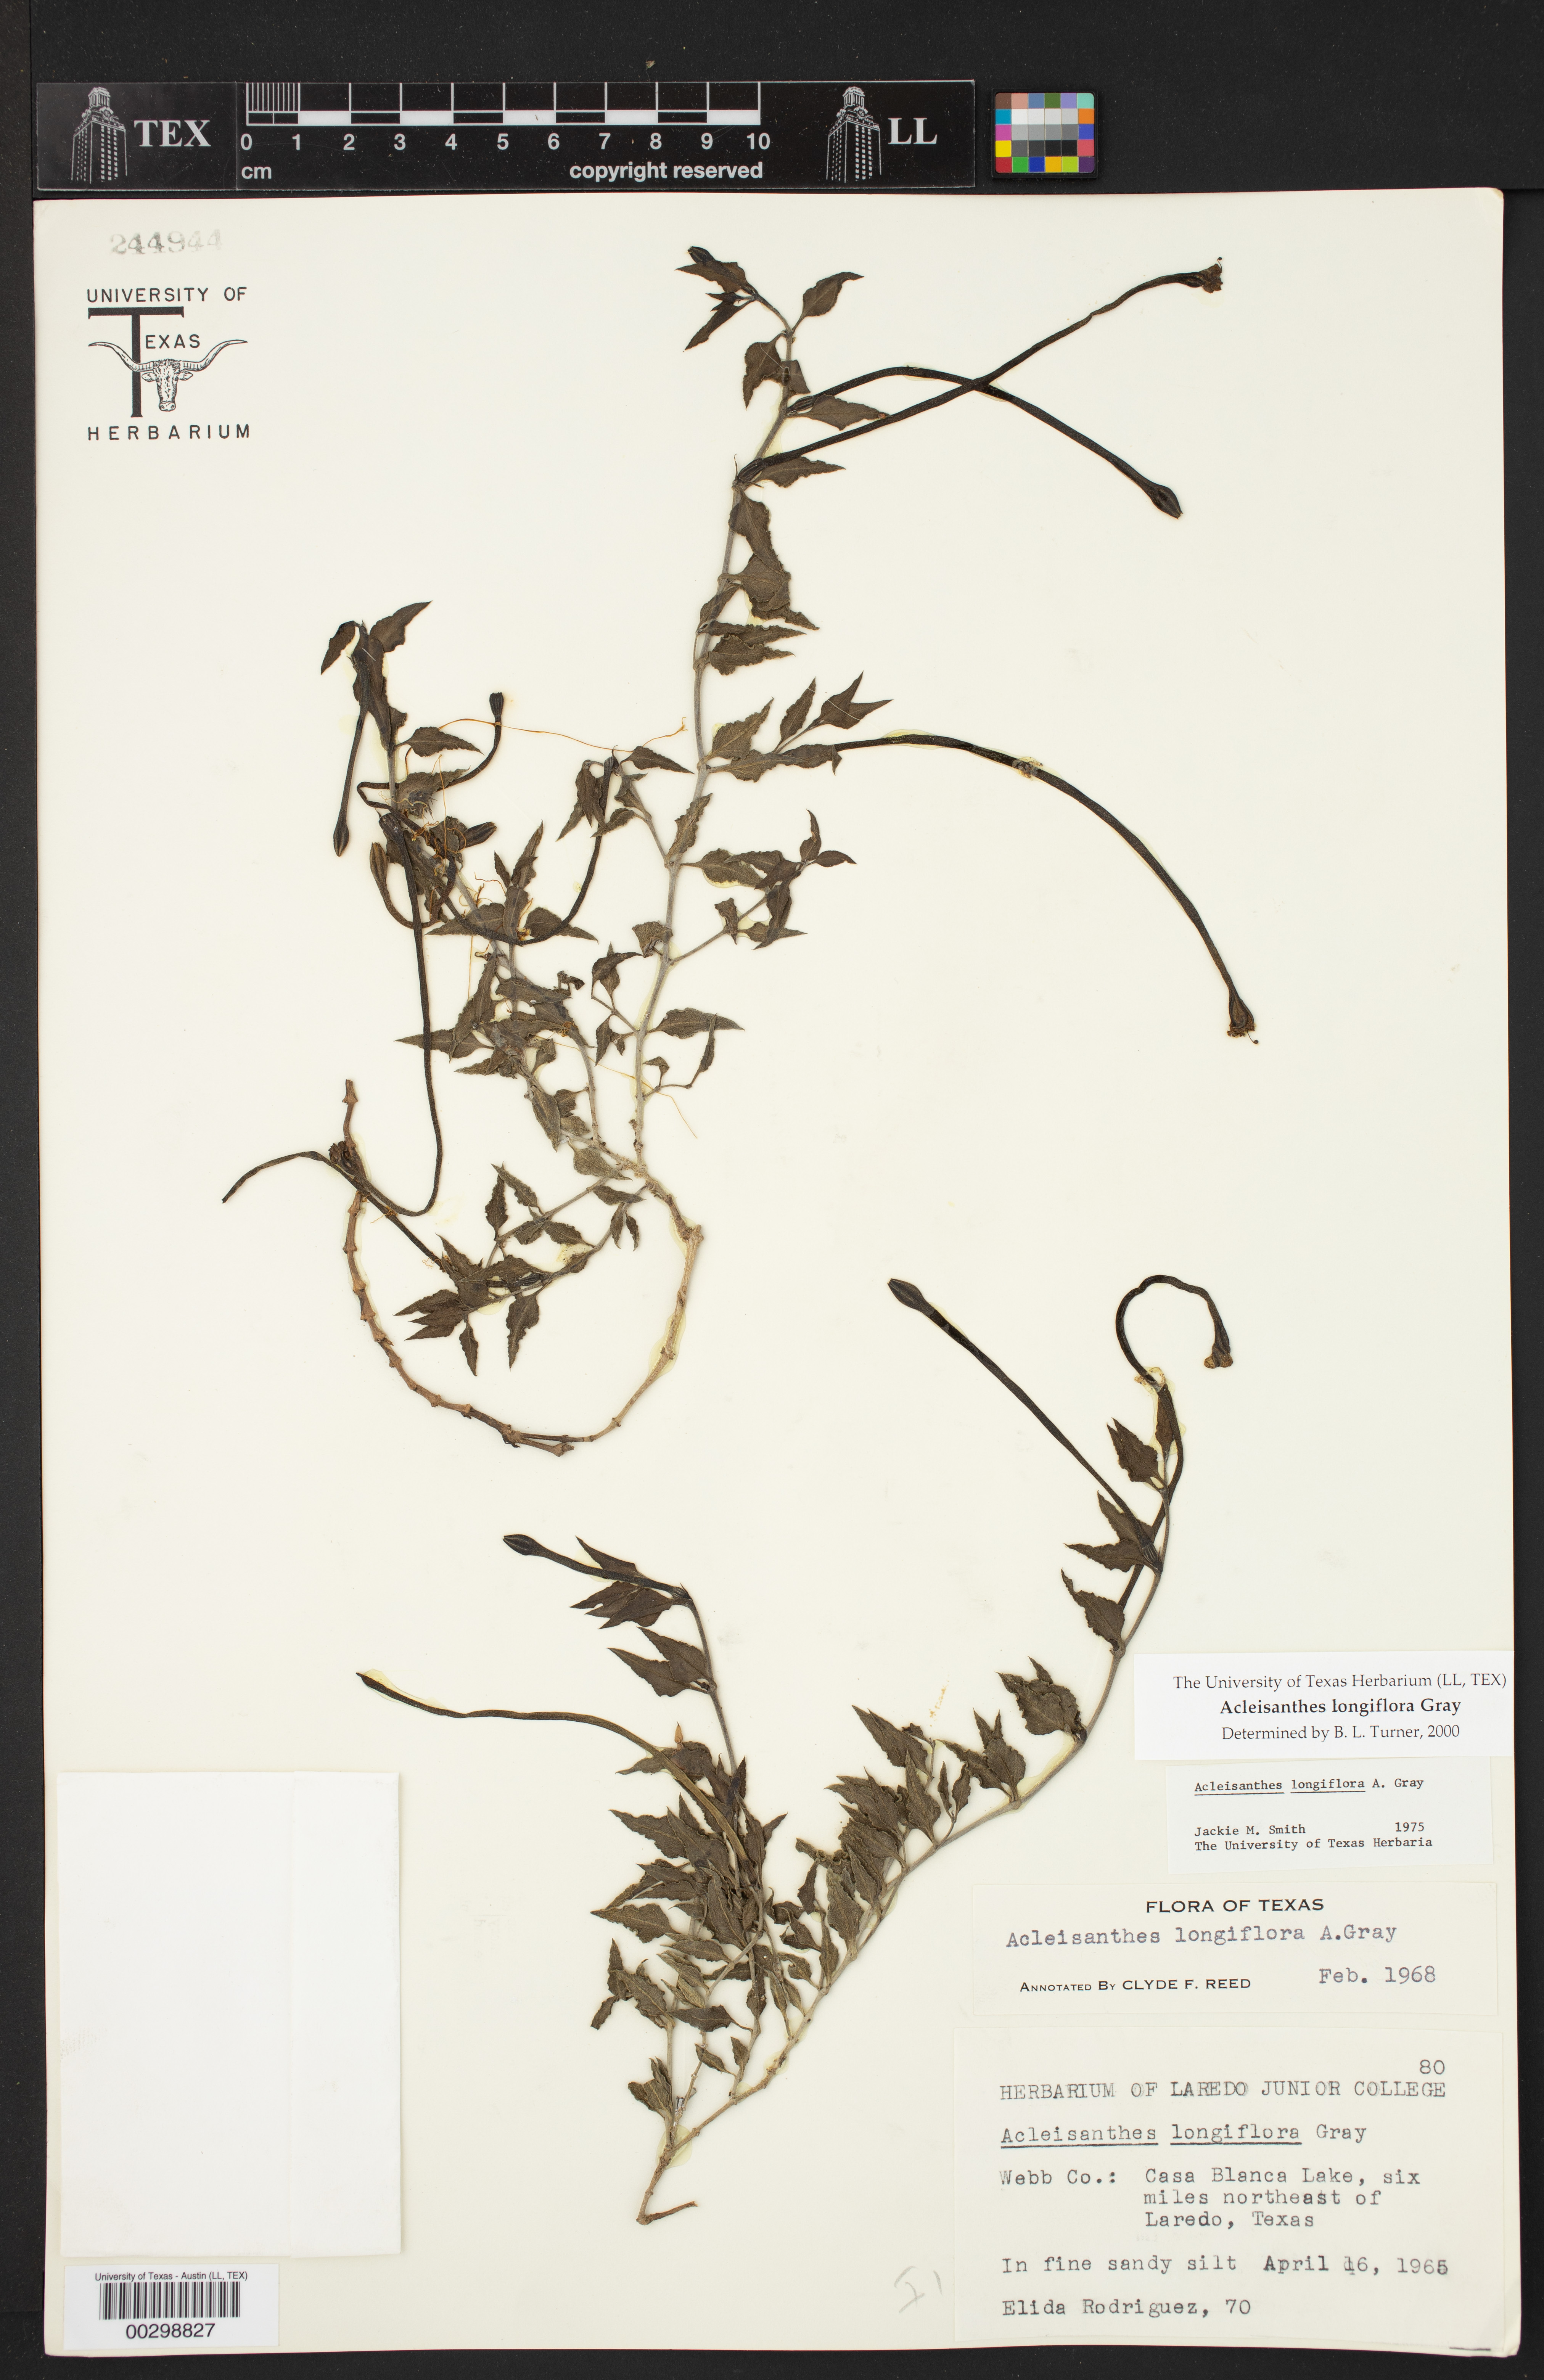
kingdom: Plantae
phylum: Tracheophyta
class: Magnoliopsida
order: Caryophyllales
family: Nyctaginaceae
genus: Acleisanthes
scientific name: Acleisanthes longiflora
